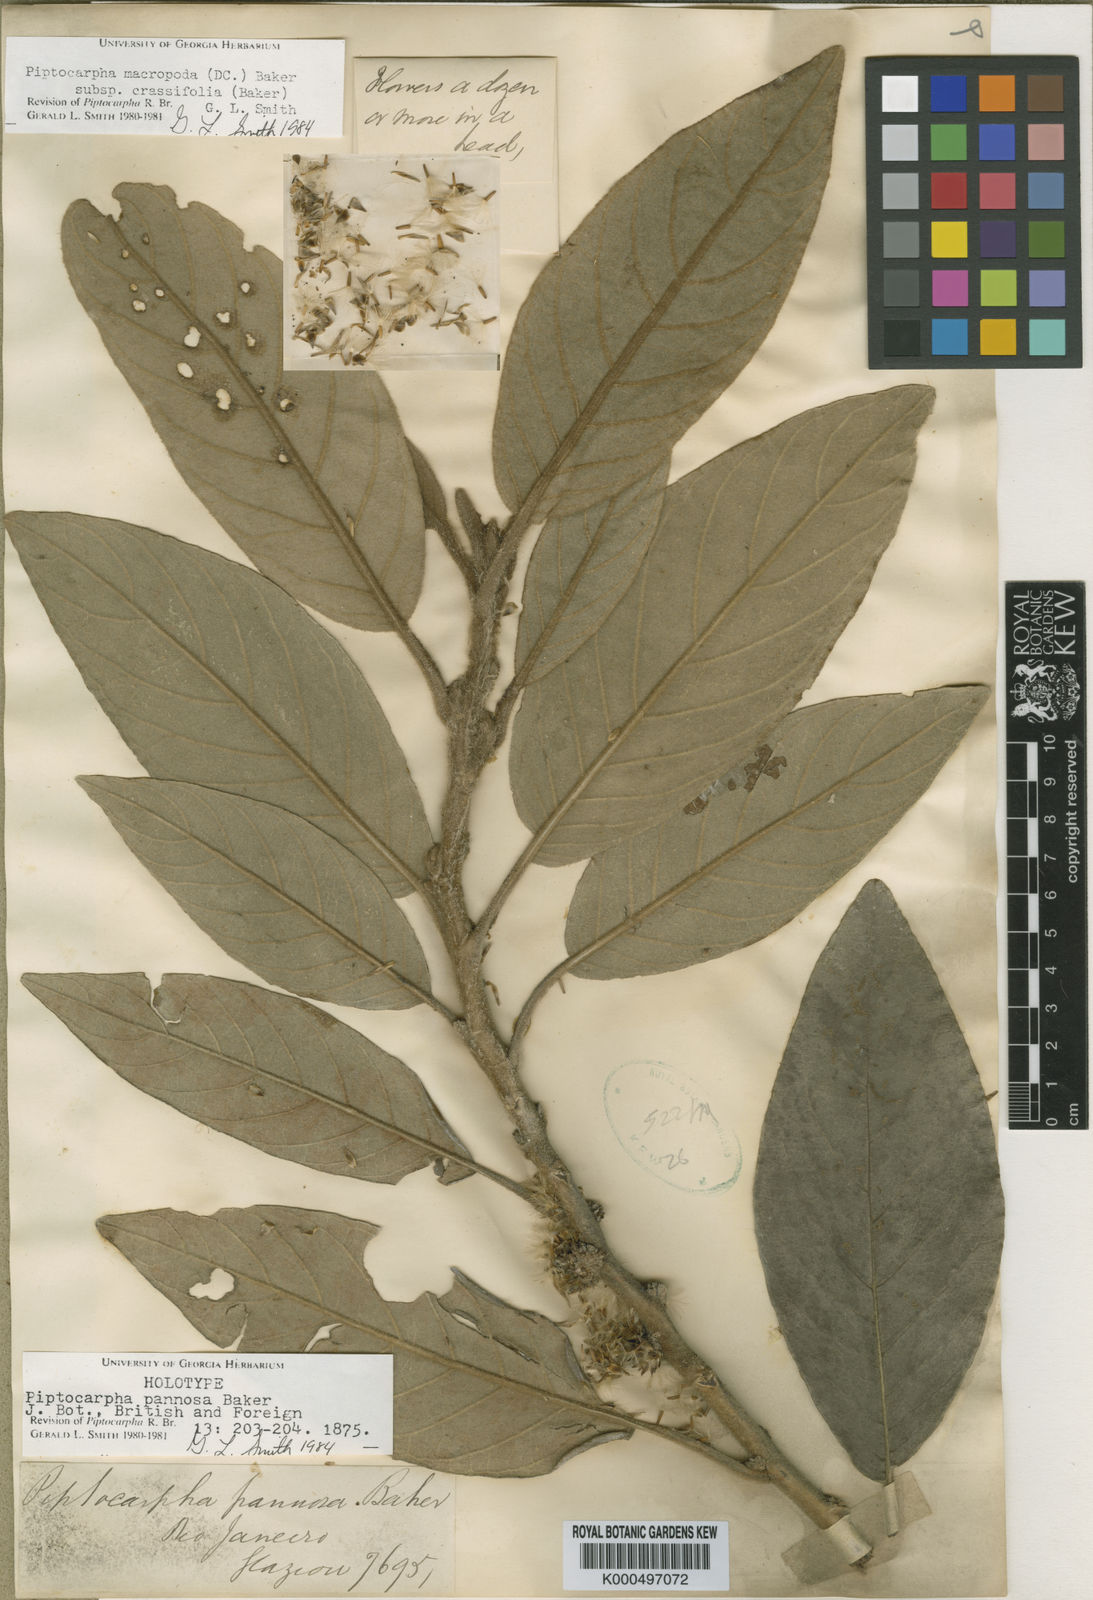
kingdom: Plantae
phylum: Tracheophyta
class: Magnoliopsida
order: Asterales
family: Asteraceae
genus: Piptocarpha
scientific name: Piptocarpha macropoda
